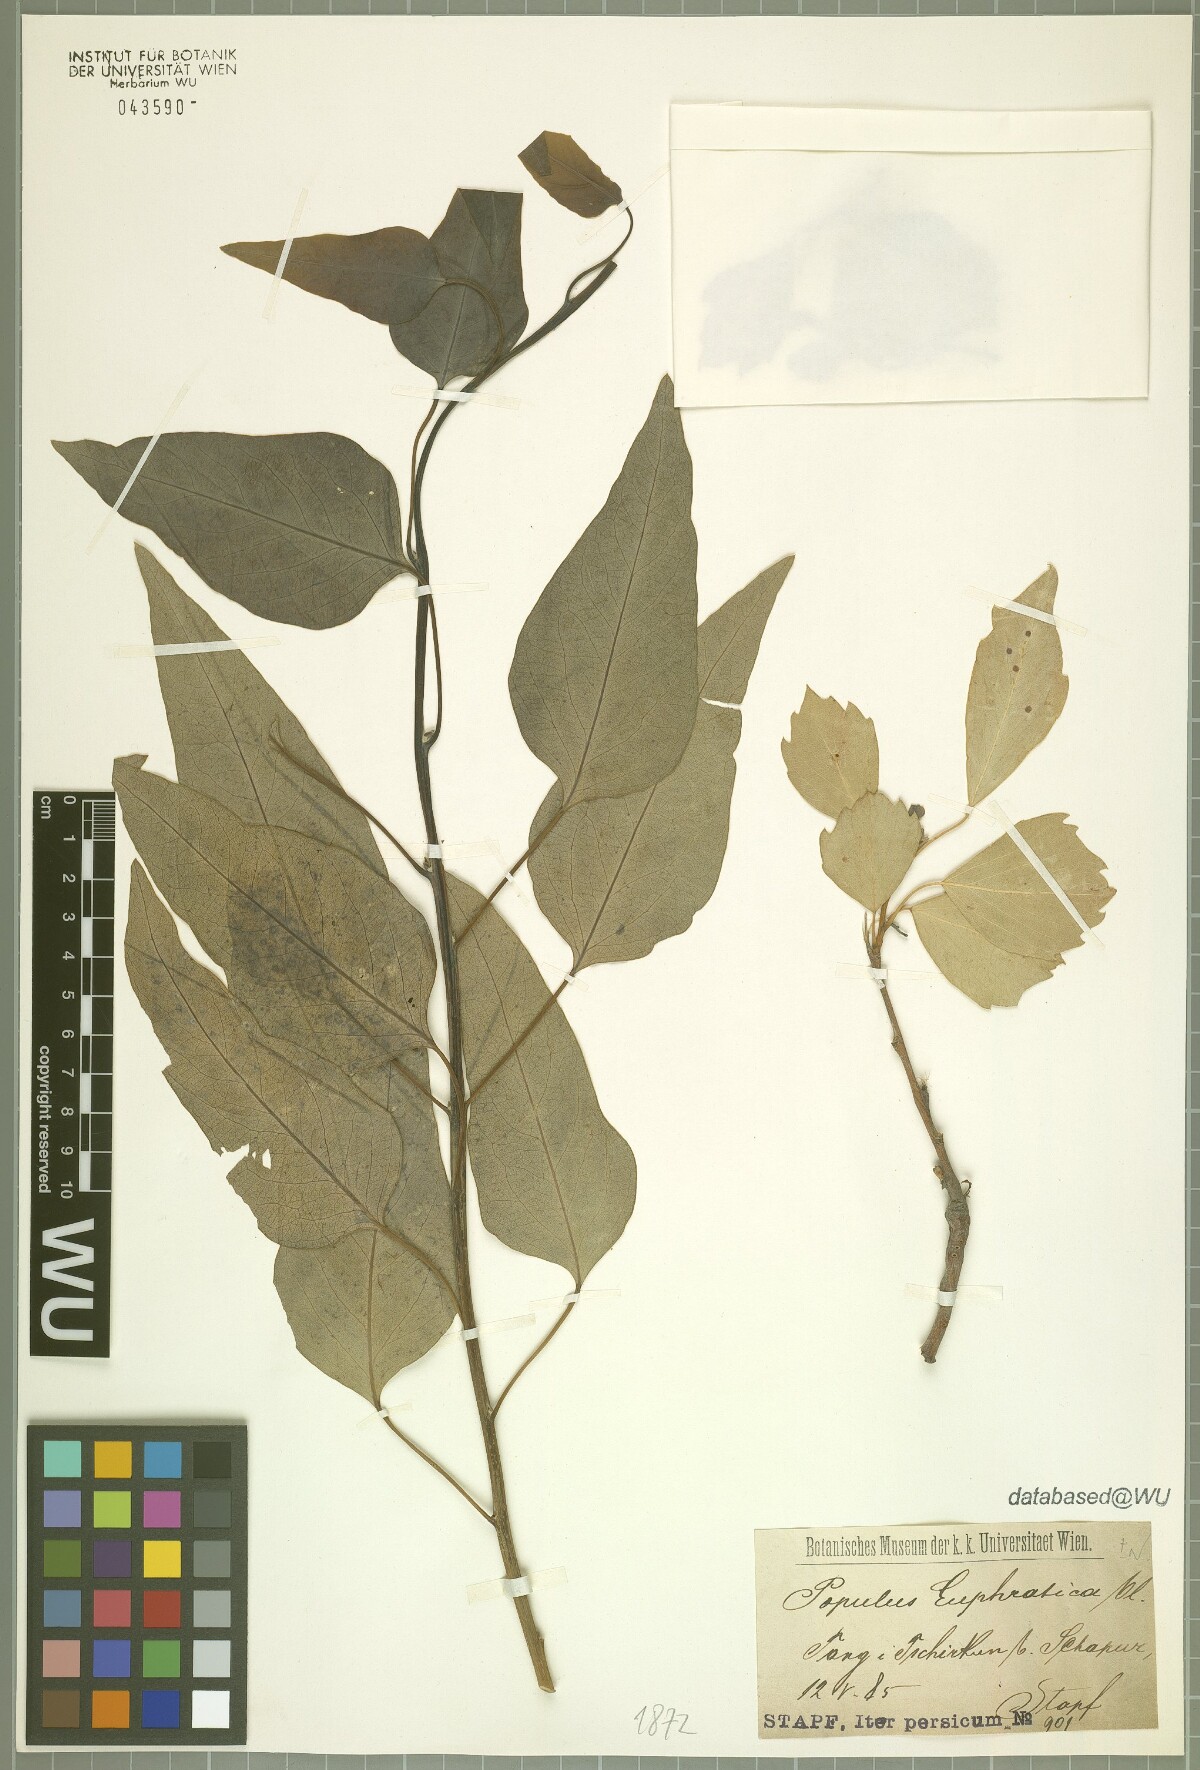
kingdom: Plantae
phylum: Tracheophyta
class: Magnoliopsida
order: Malpighiales
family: Salicaceae
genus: Populus
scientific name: Populus euphratica
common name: Euphrates poplar
